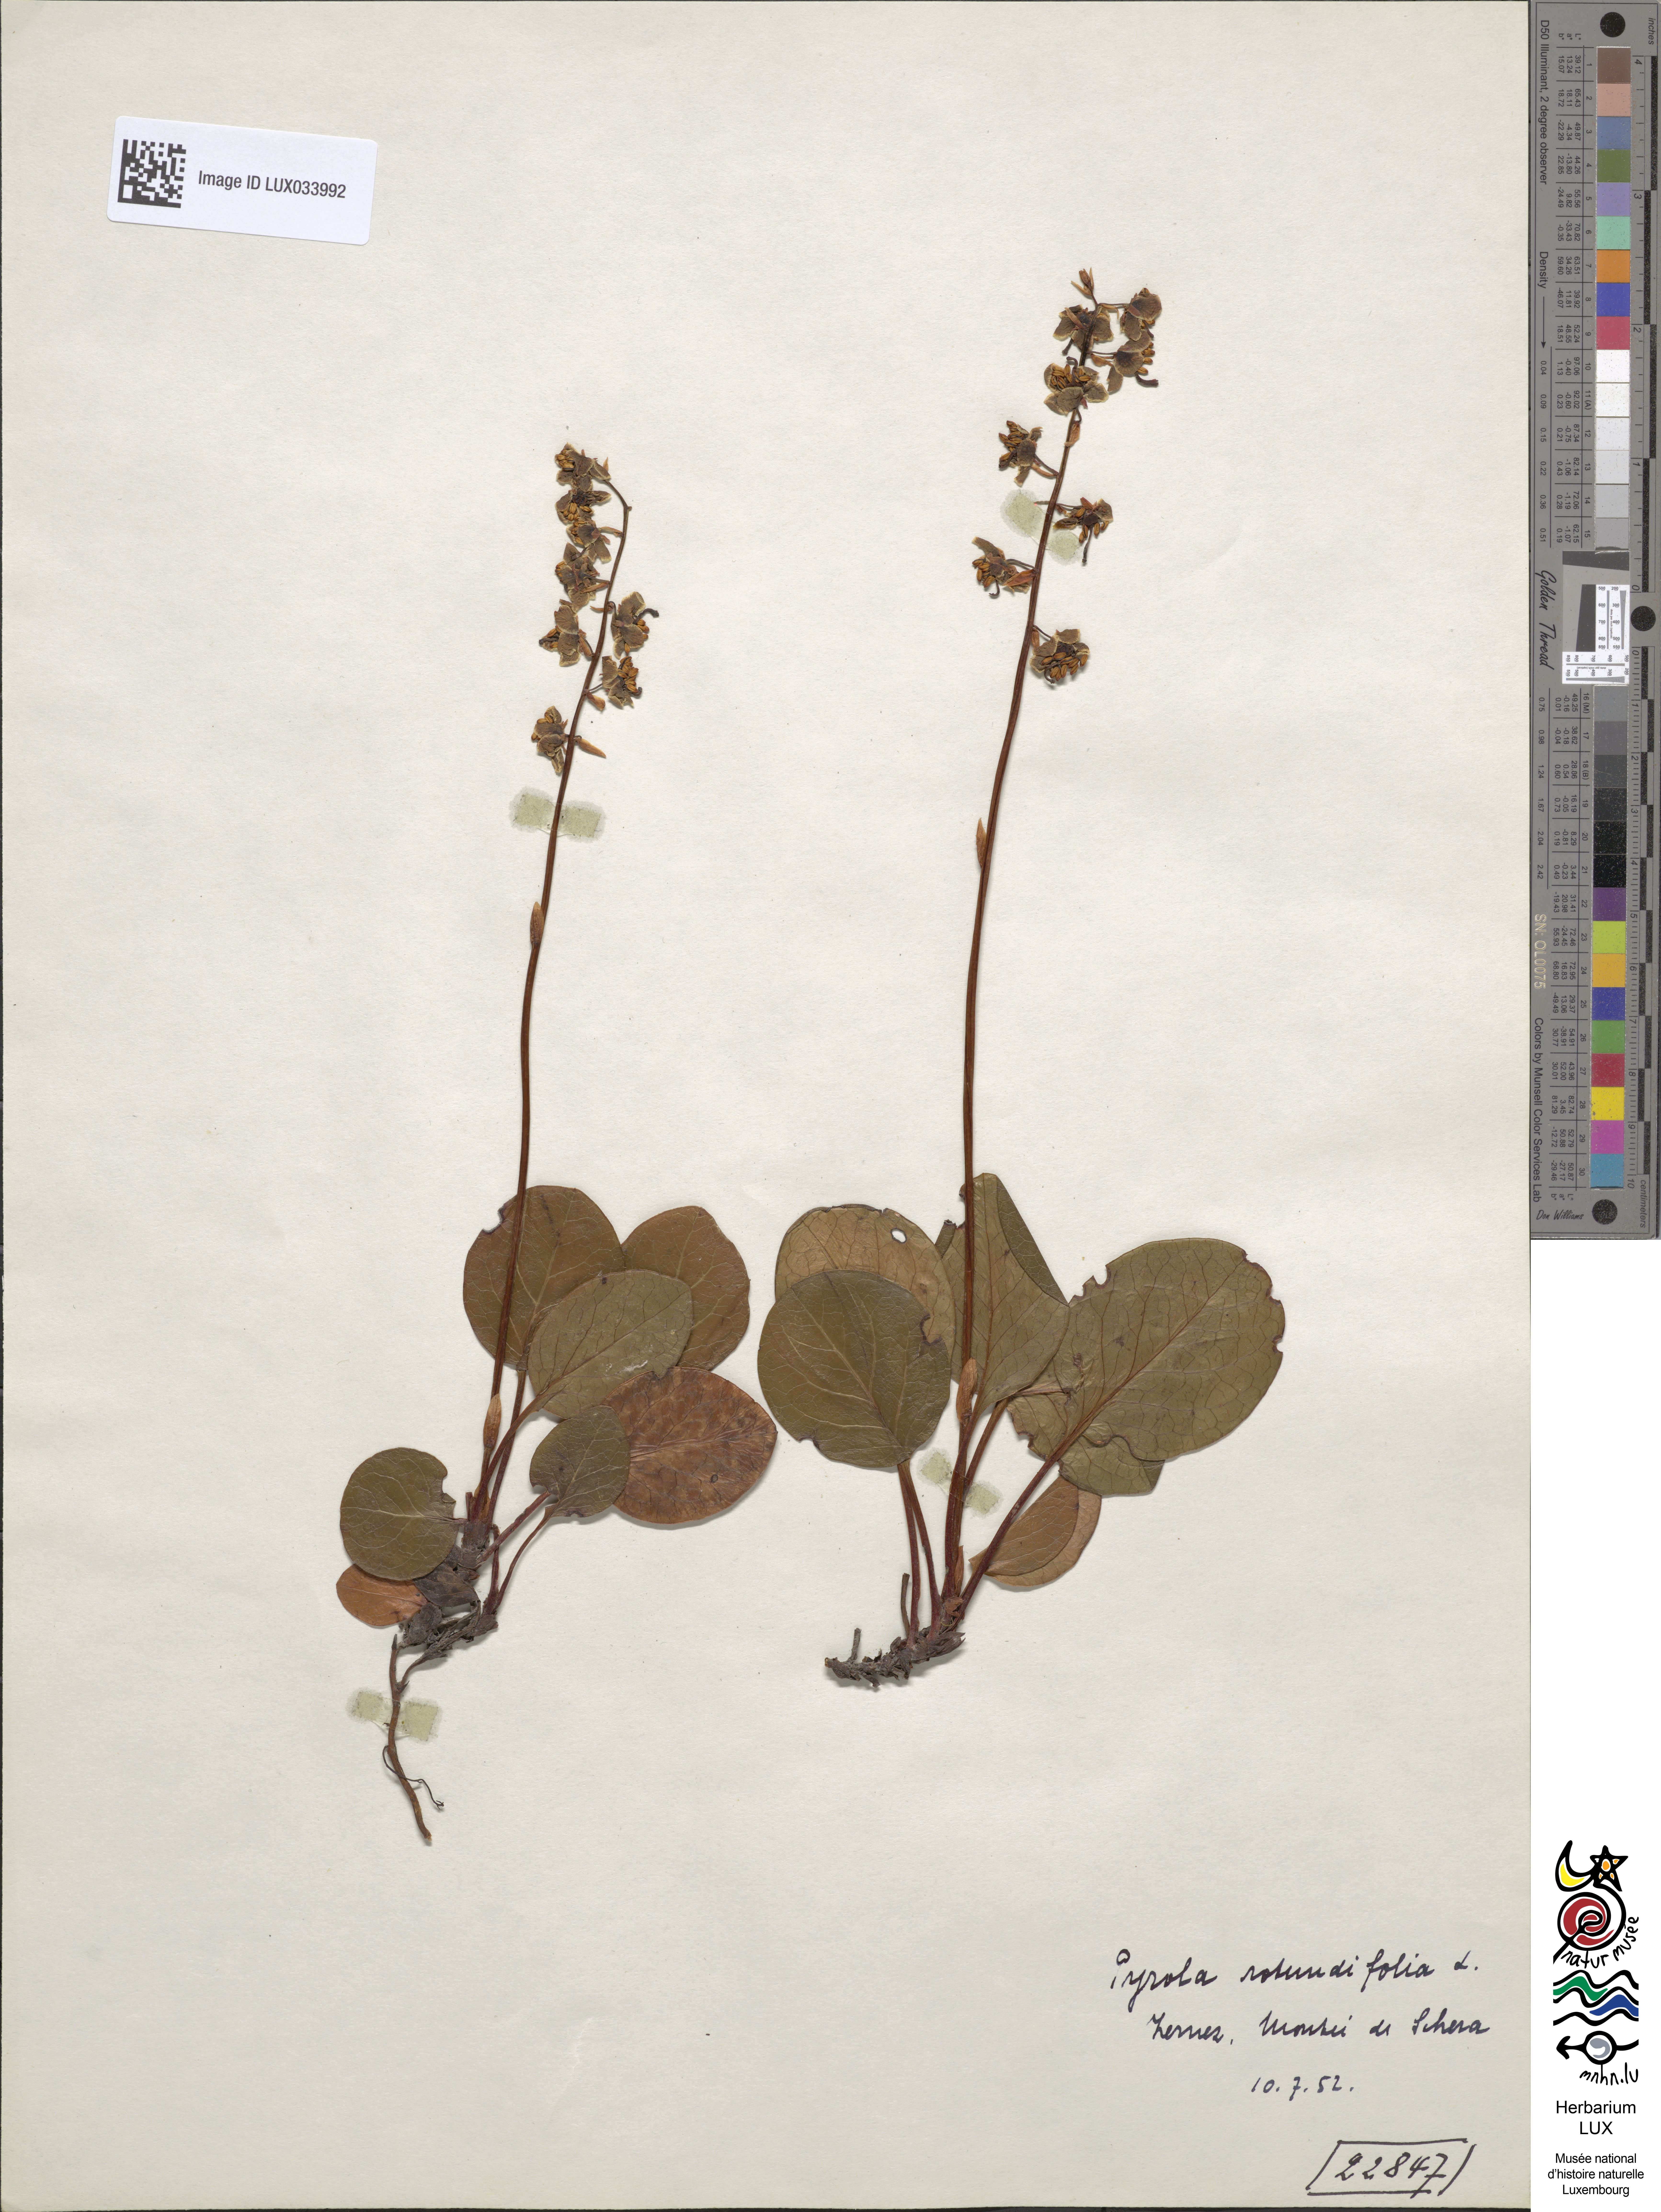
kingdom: Plantae
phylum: Tracheophyta
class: Magnoliopsida
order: Ericales
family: Ericaceae
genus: Pyrola
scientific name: Pyrola rotundifolia
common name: Round-leaved wintergreen
